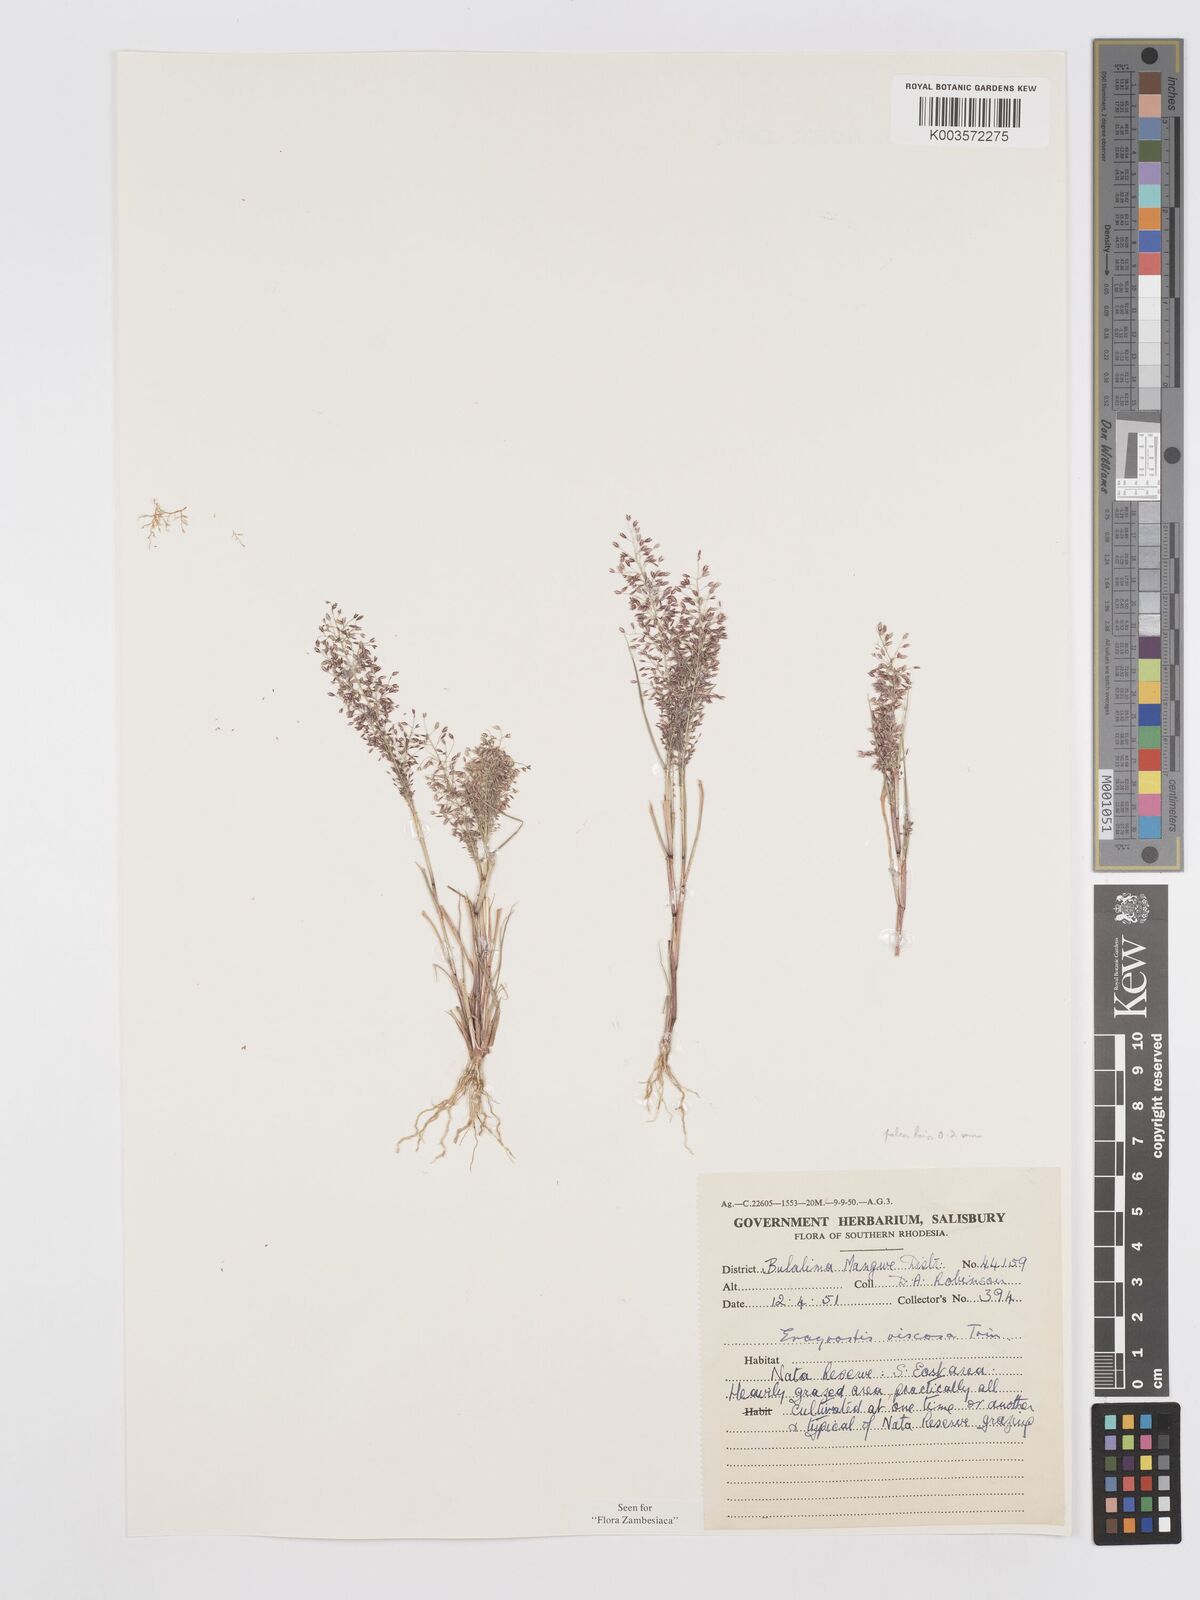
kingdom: Plantae
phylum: Tracheophyta
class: Liliopsida
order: Poales
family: Poaceae
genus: Eragrostis
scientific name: Eragrostis
